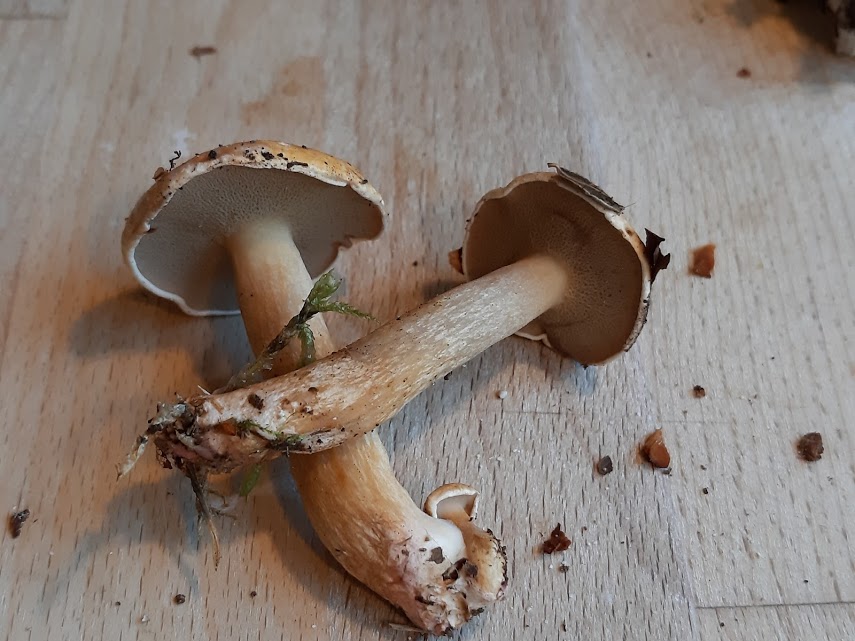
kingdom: Fungi
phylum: Basidiomycota
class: Agaricomycetes
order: Boletales
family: Suillaceae
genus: Suillus
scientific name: Suillus bovinus
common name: grovporet slimrørhat
